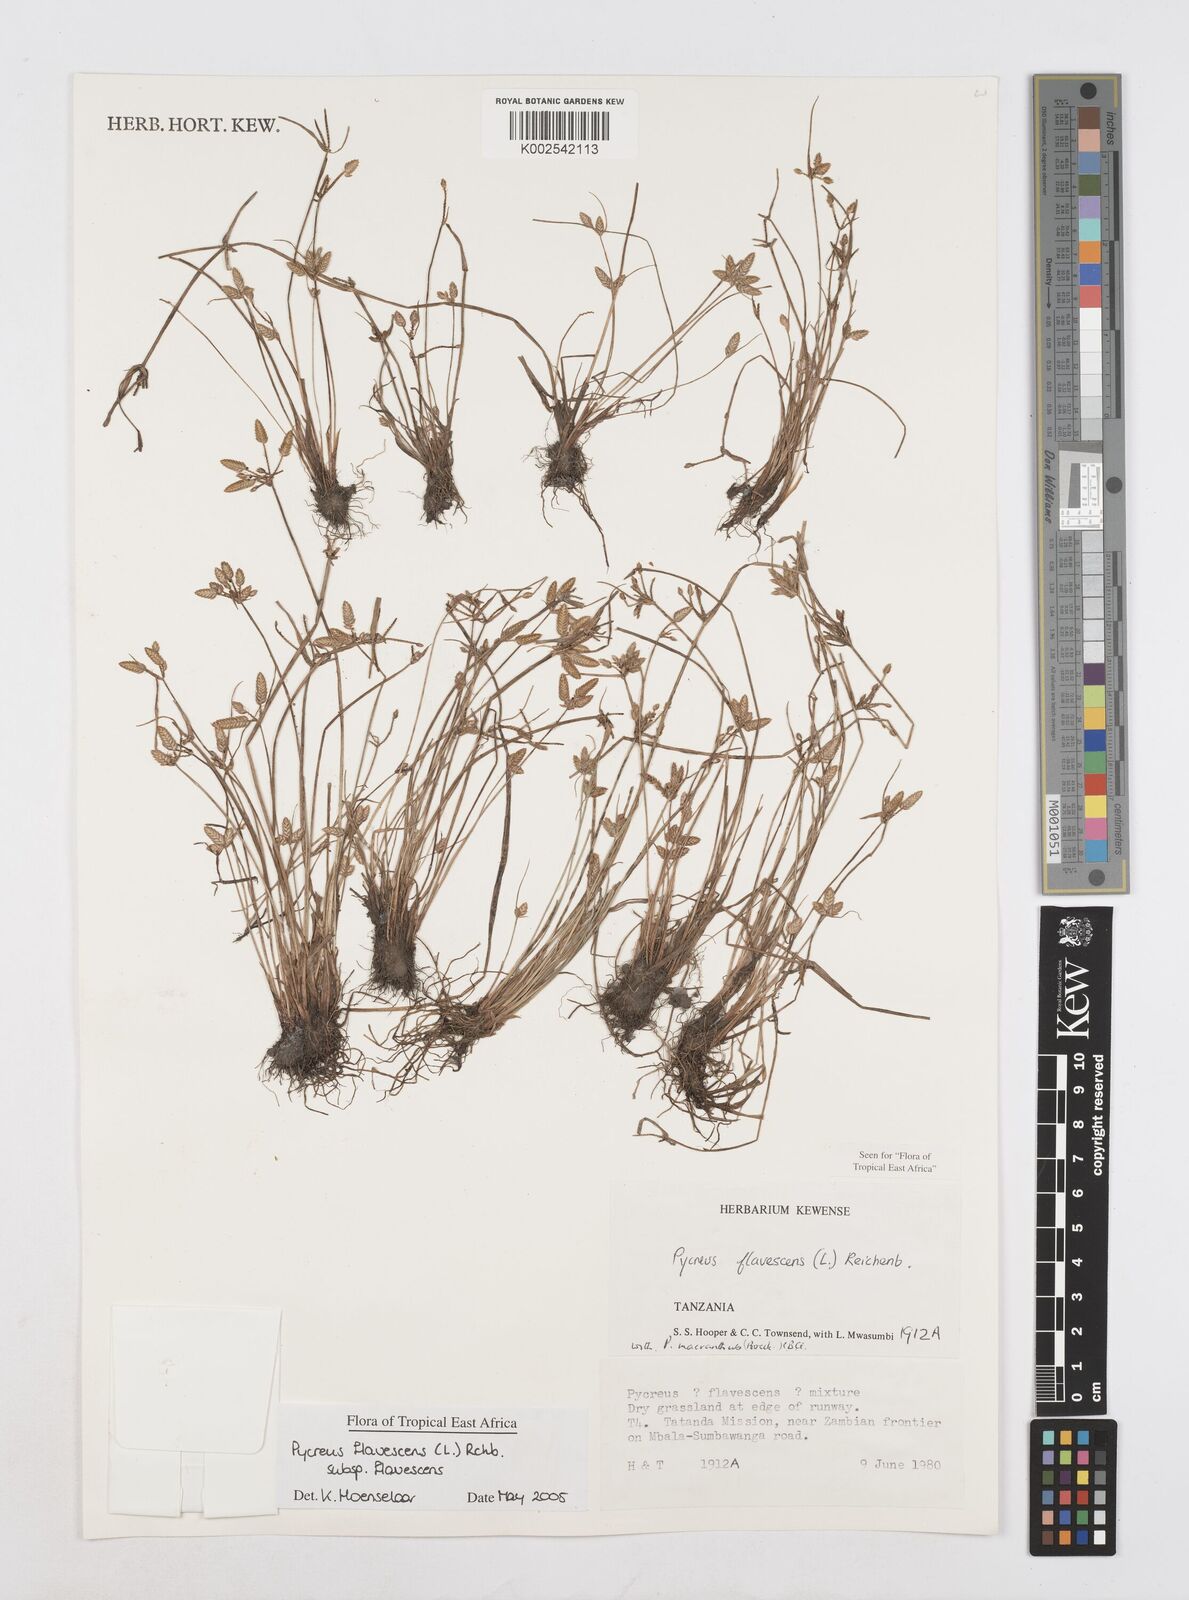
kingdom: Plantae
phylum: Tracheophyta
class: Liliopsida
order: Poales
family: Cyperaceae
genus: Cyperus
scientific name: Cyperus flavescens
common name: Yellow galingale
